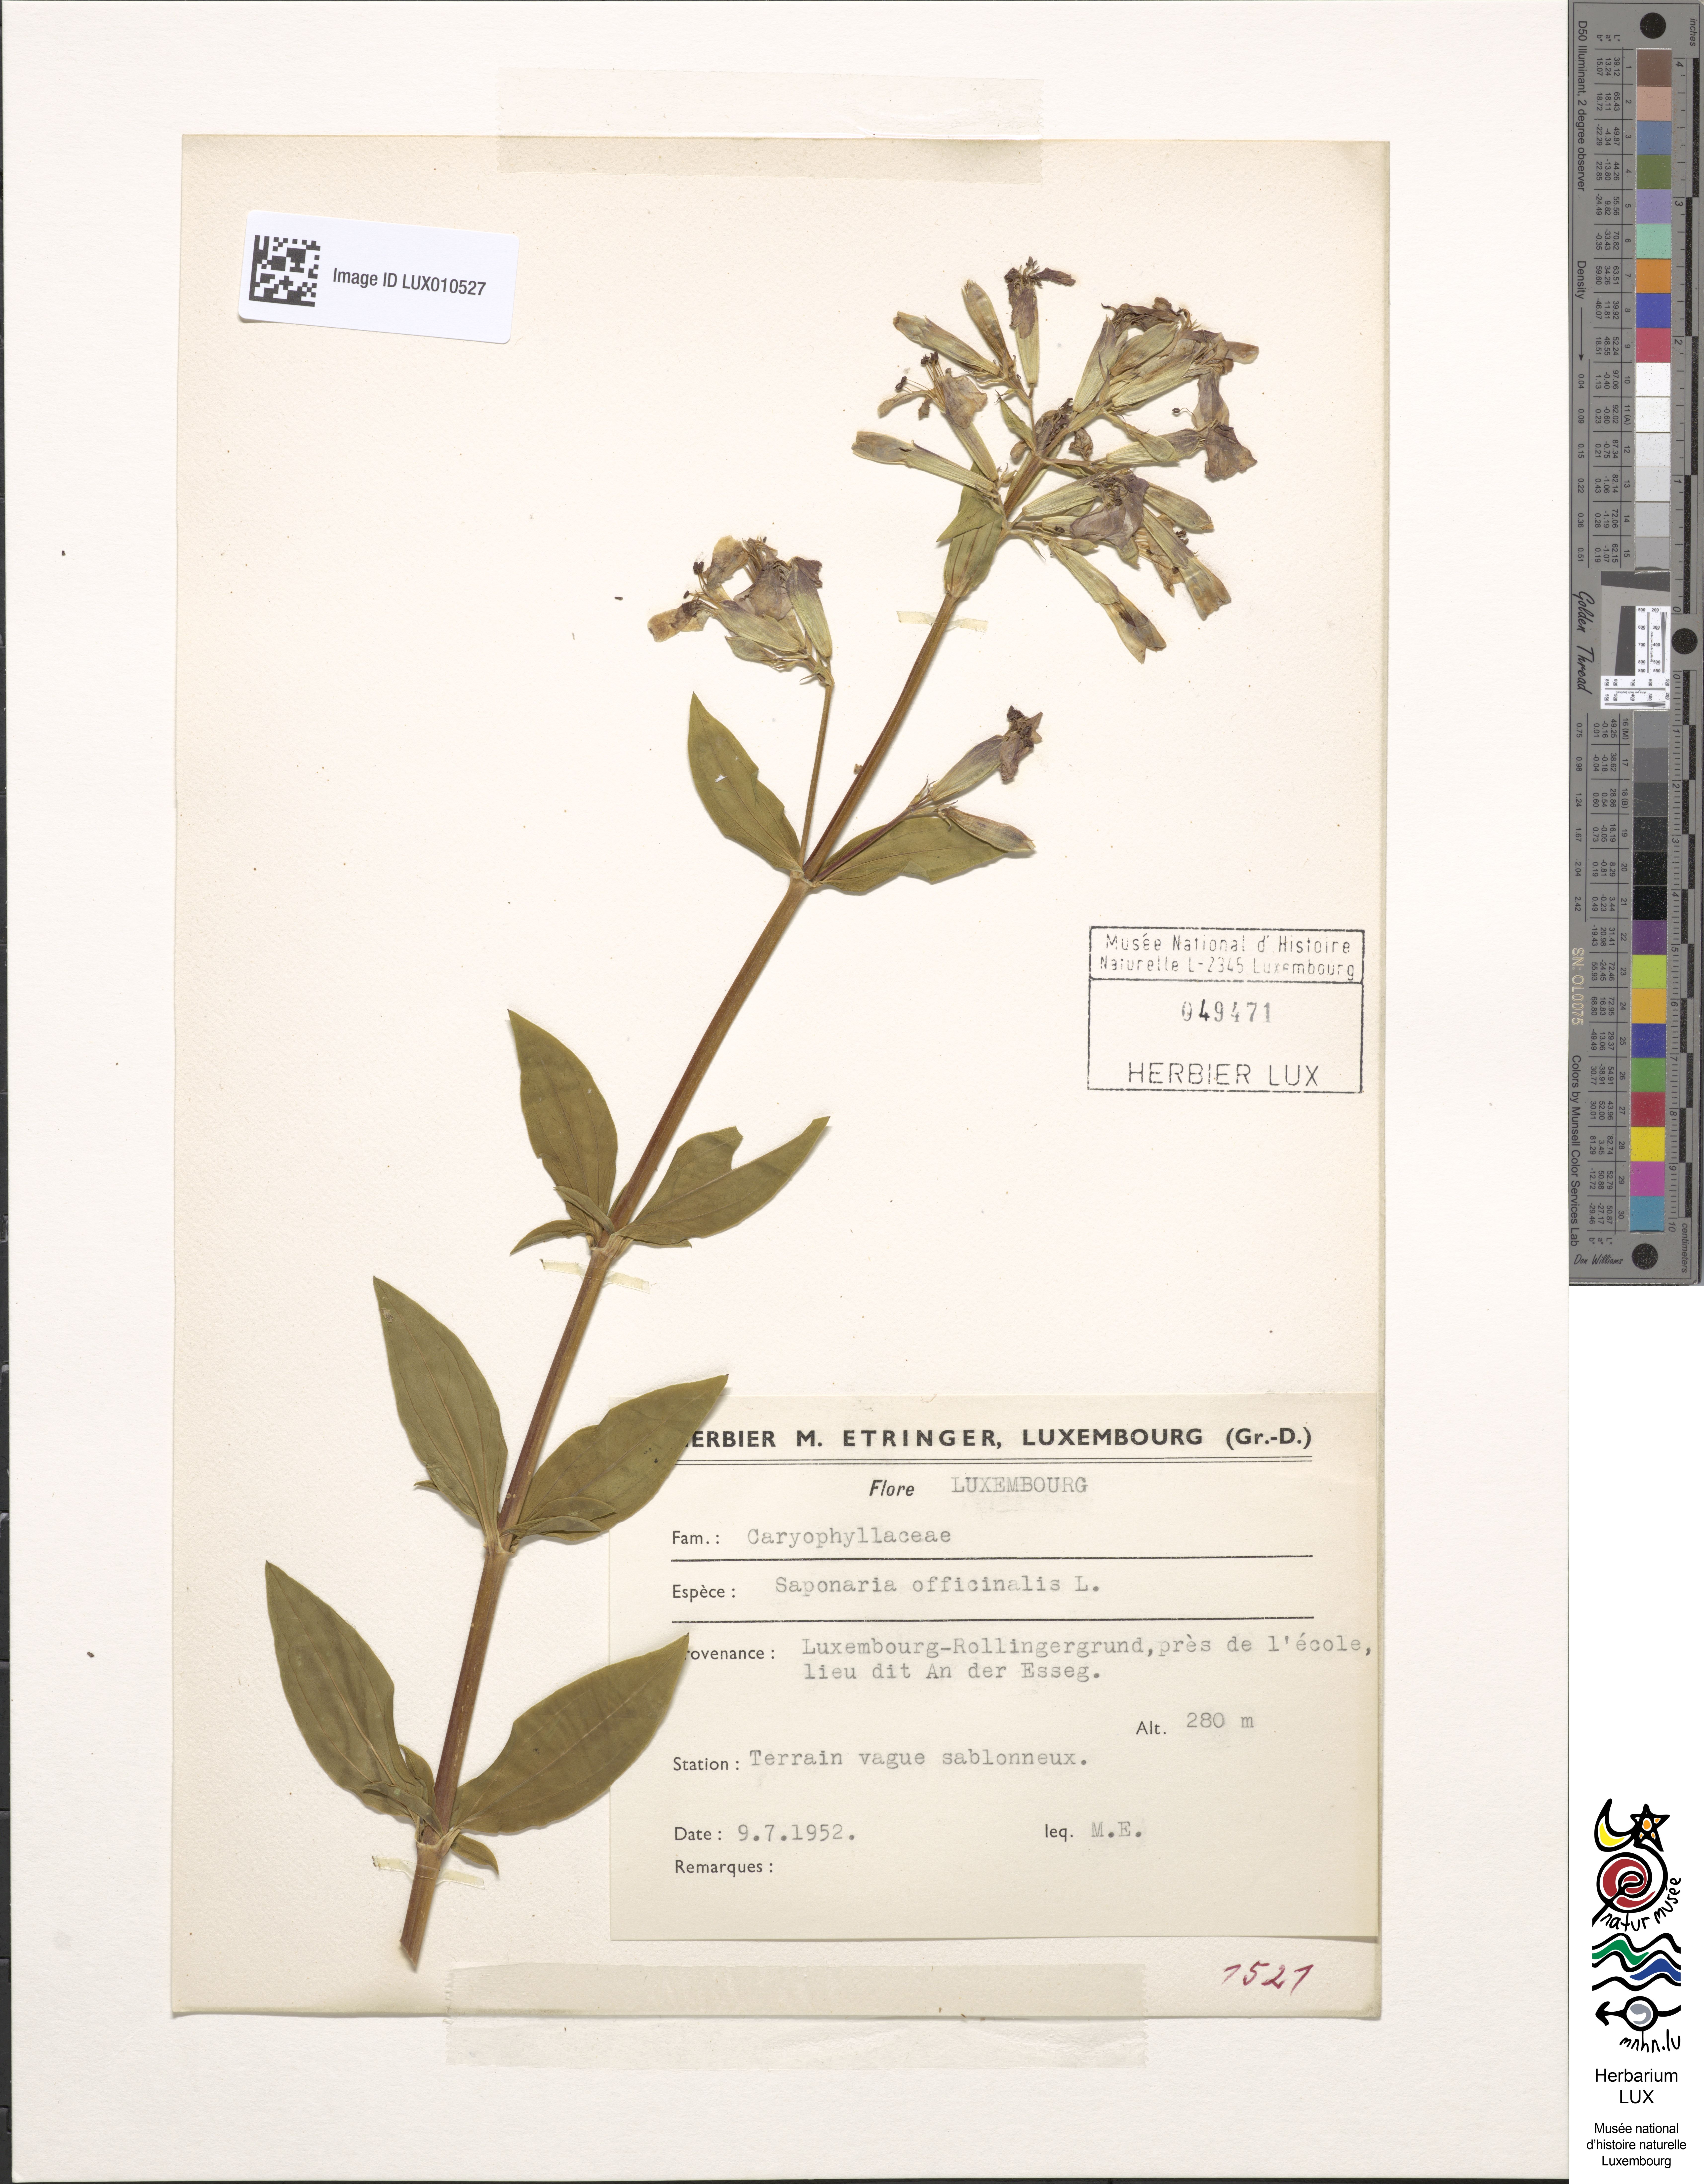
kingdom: Plantae
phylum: Tracheophyta
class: Magnoliopsida
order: Caryophyllales
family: Caryophyllaceae
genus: Saponaria
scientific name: Saponaria officinalis
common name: Soapwort
